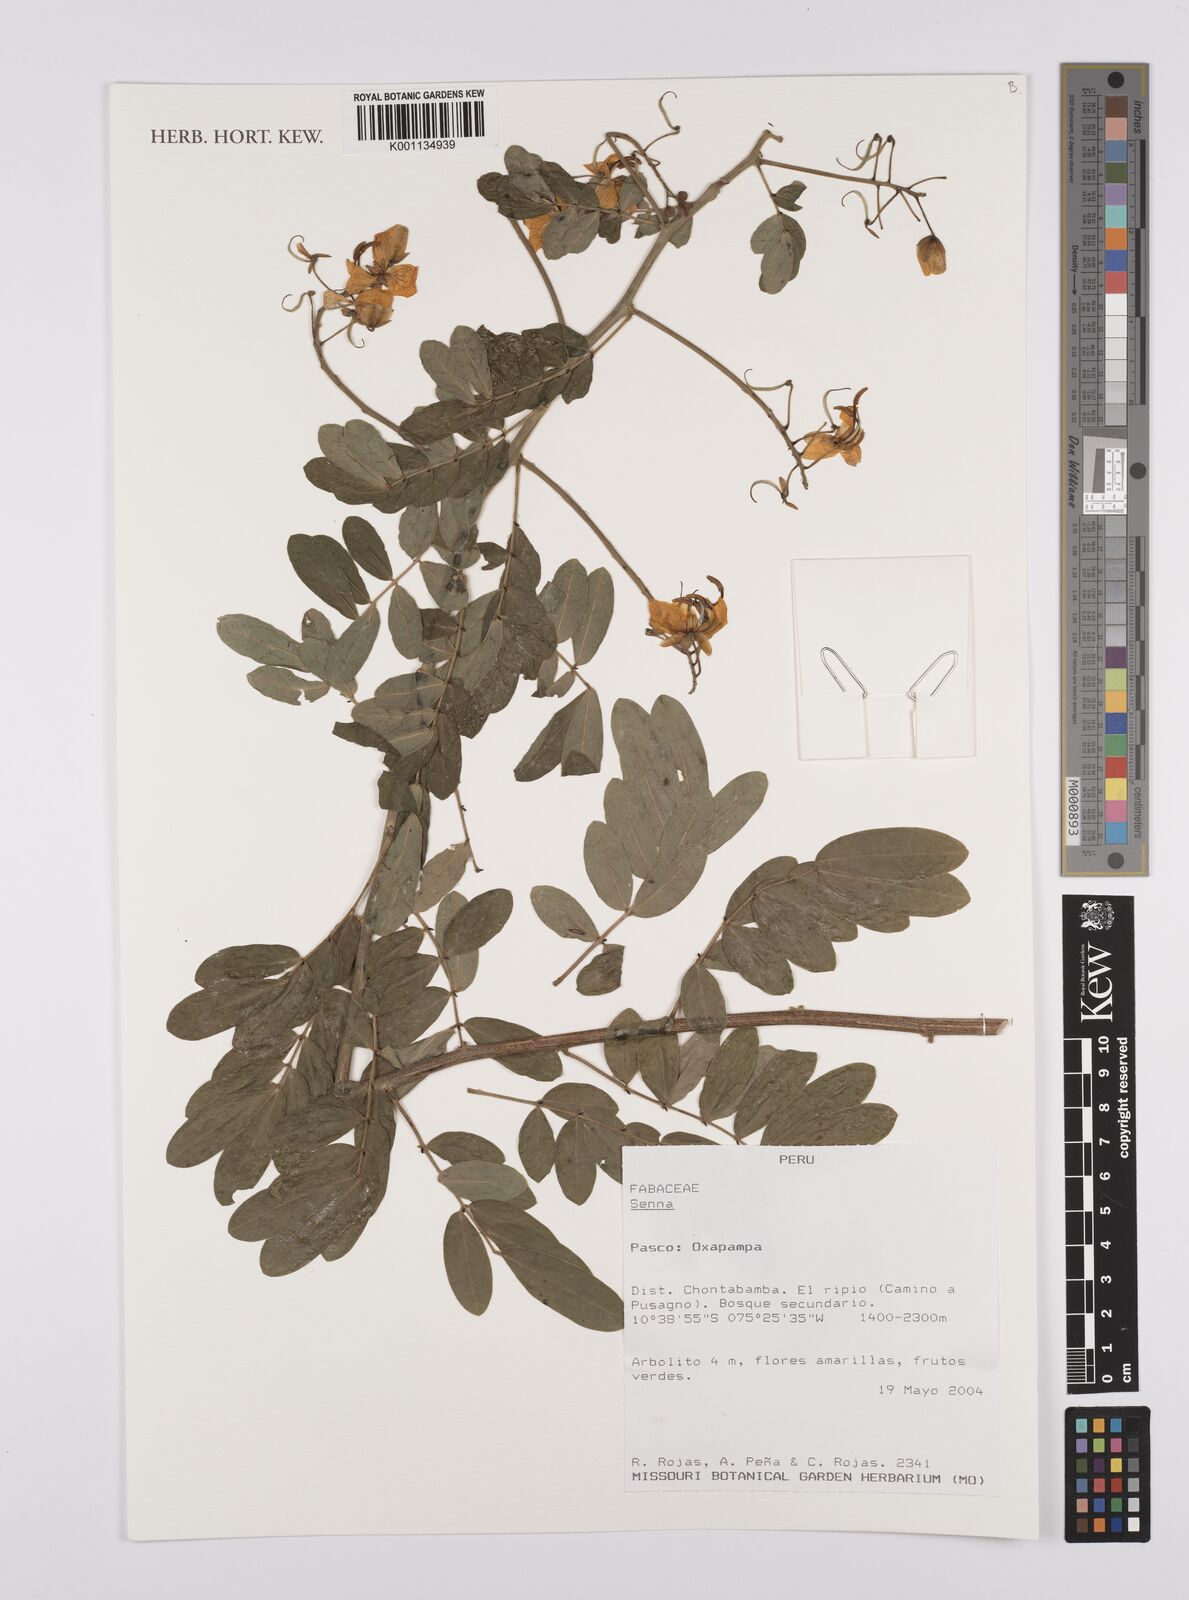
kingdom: Plantae
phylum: Tracheophyta
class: Magnoliopsida
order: Fabales
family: Fabaceae
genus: Senna
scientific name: Senna
